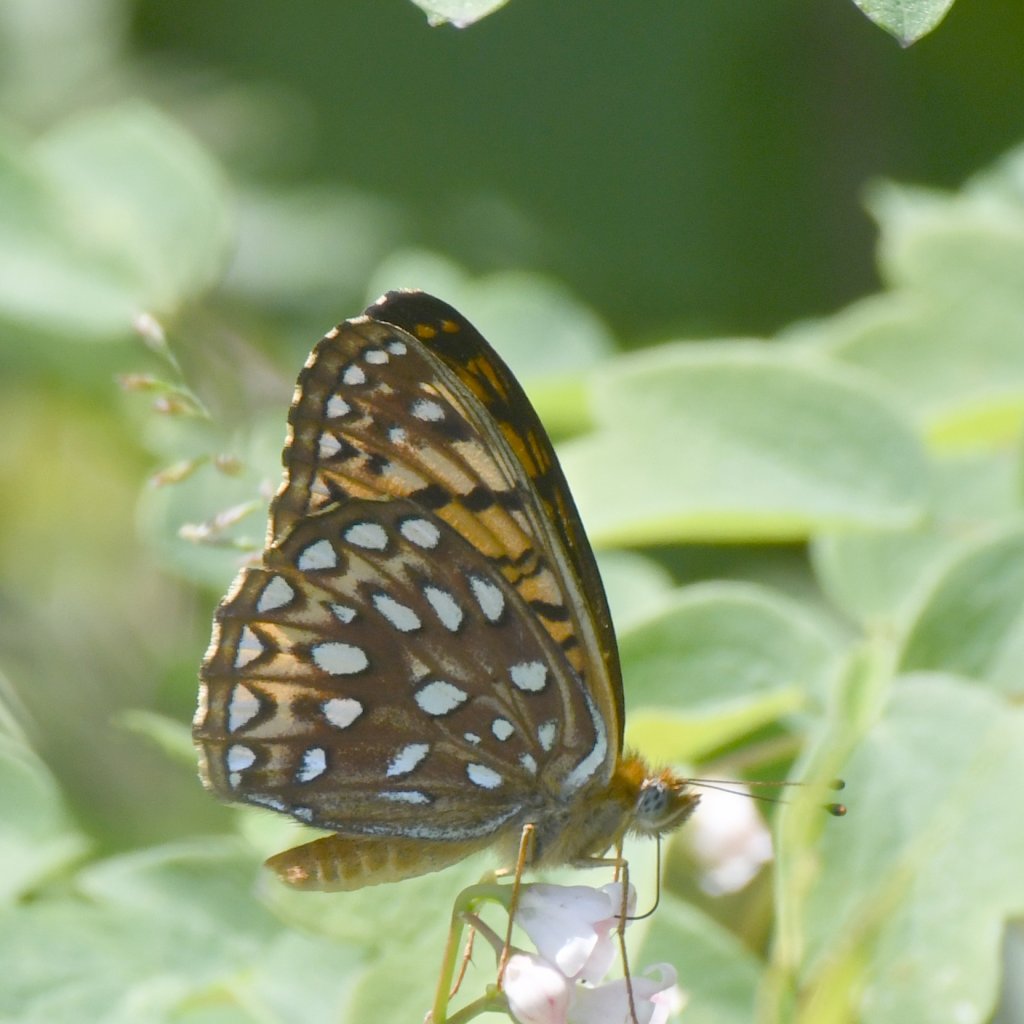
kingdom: Animalia
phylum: Arthropoda
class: Insecta
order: Lepidoptera
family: Nymphalidae
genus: Speyeria
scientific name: Speyeria atlantis
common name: Atlantis Fritillary
